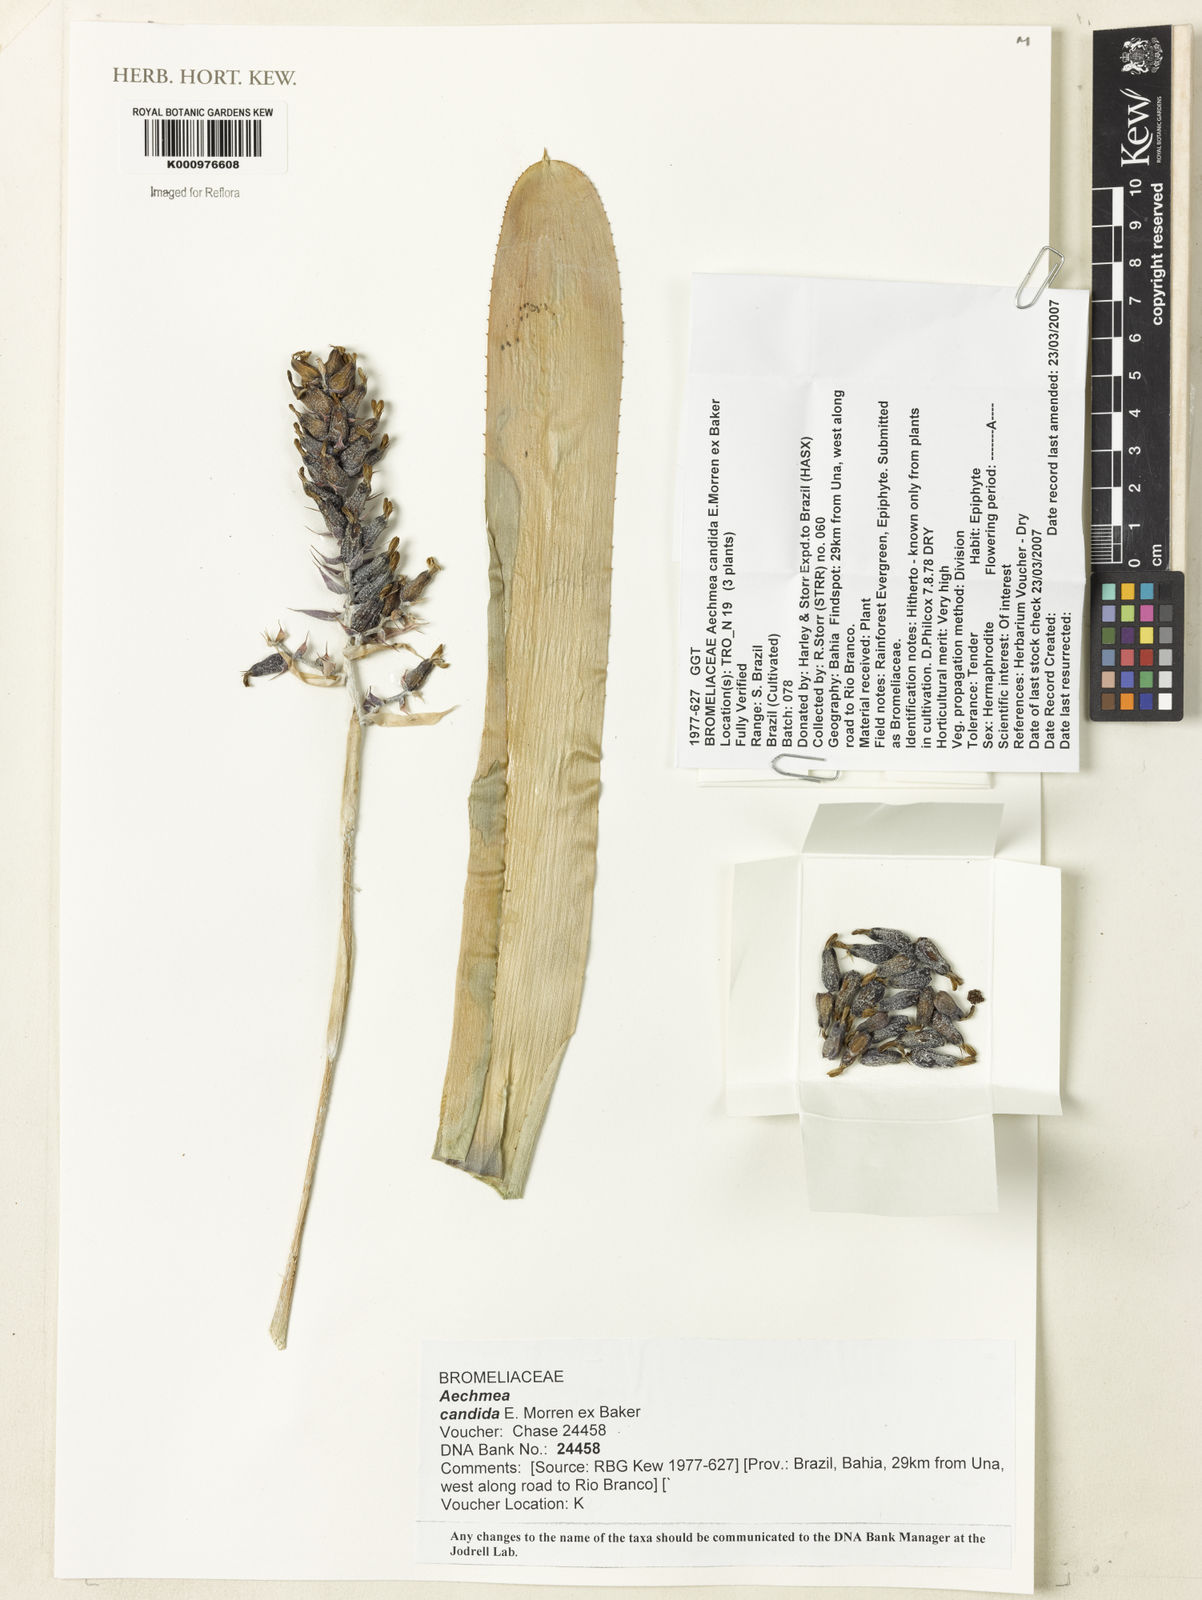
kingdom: Plantae
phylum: Tracheophyta
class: Liliopsida
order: Poales
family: Bromeliaceae
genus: Aechmea
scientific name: Aechmea candida
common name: White bromeliad
